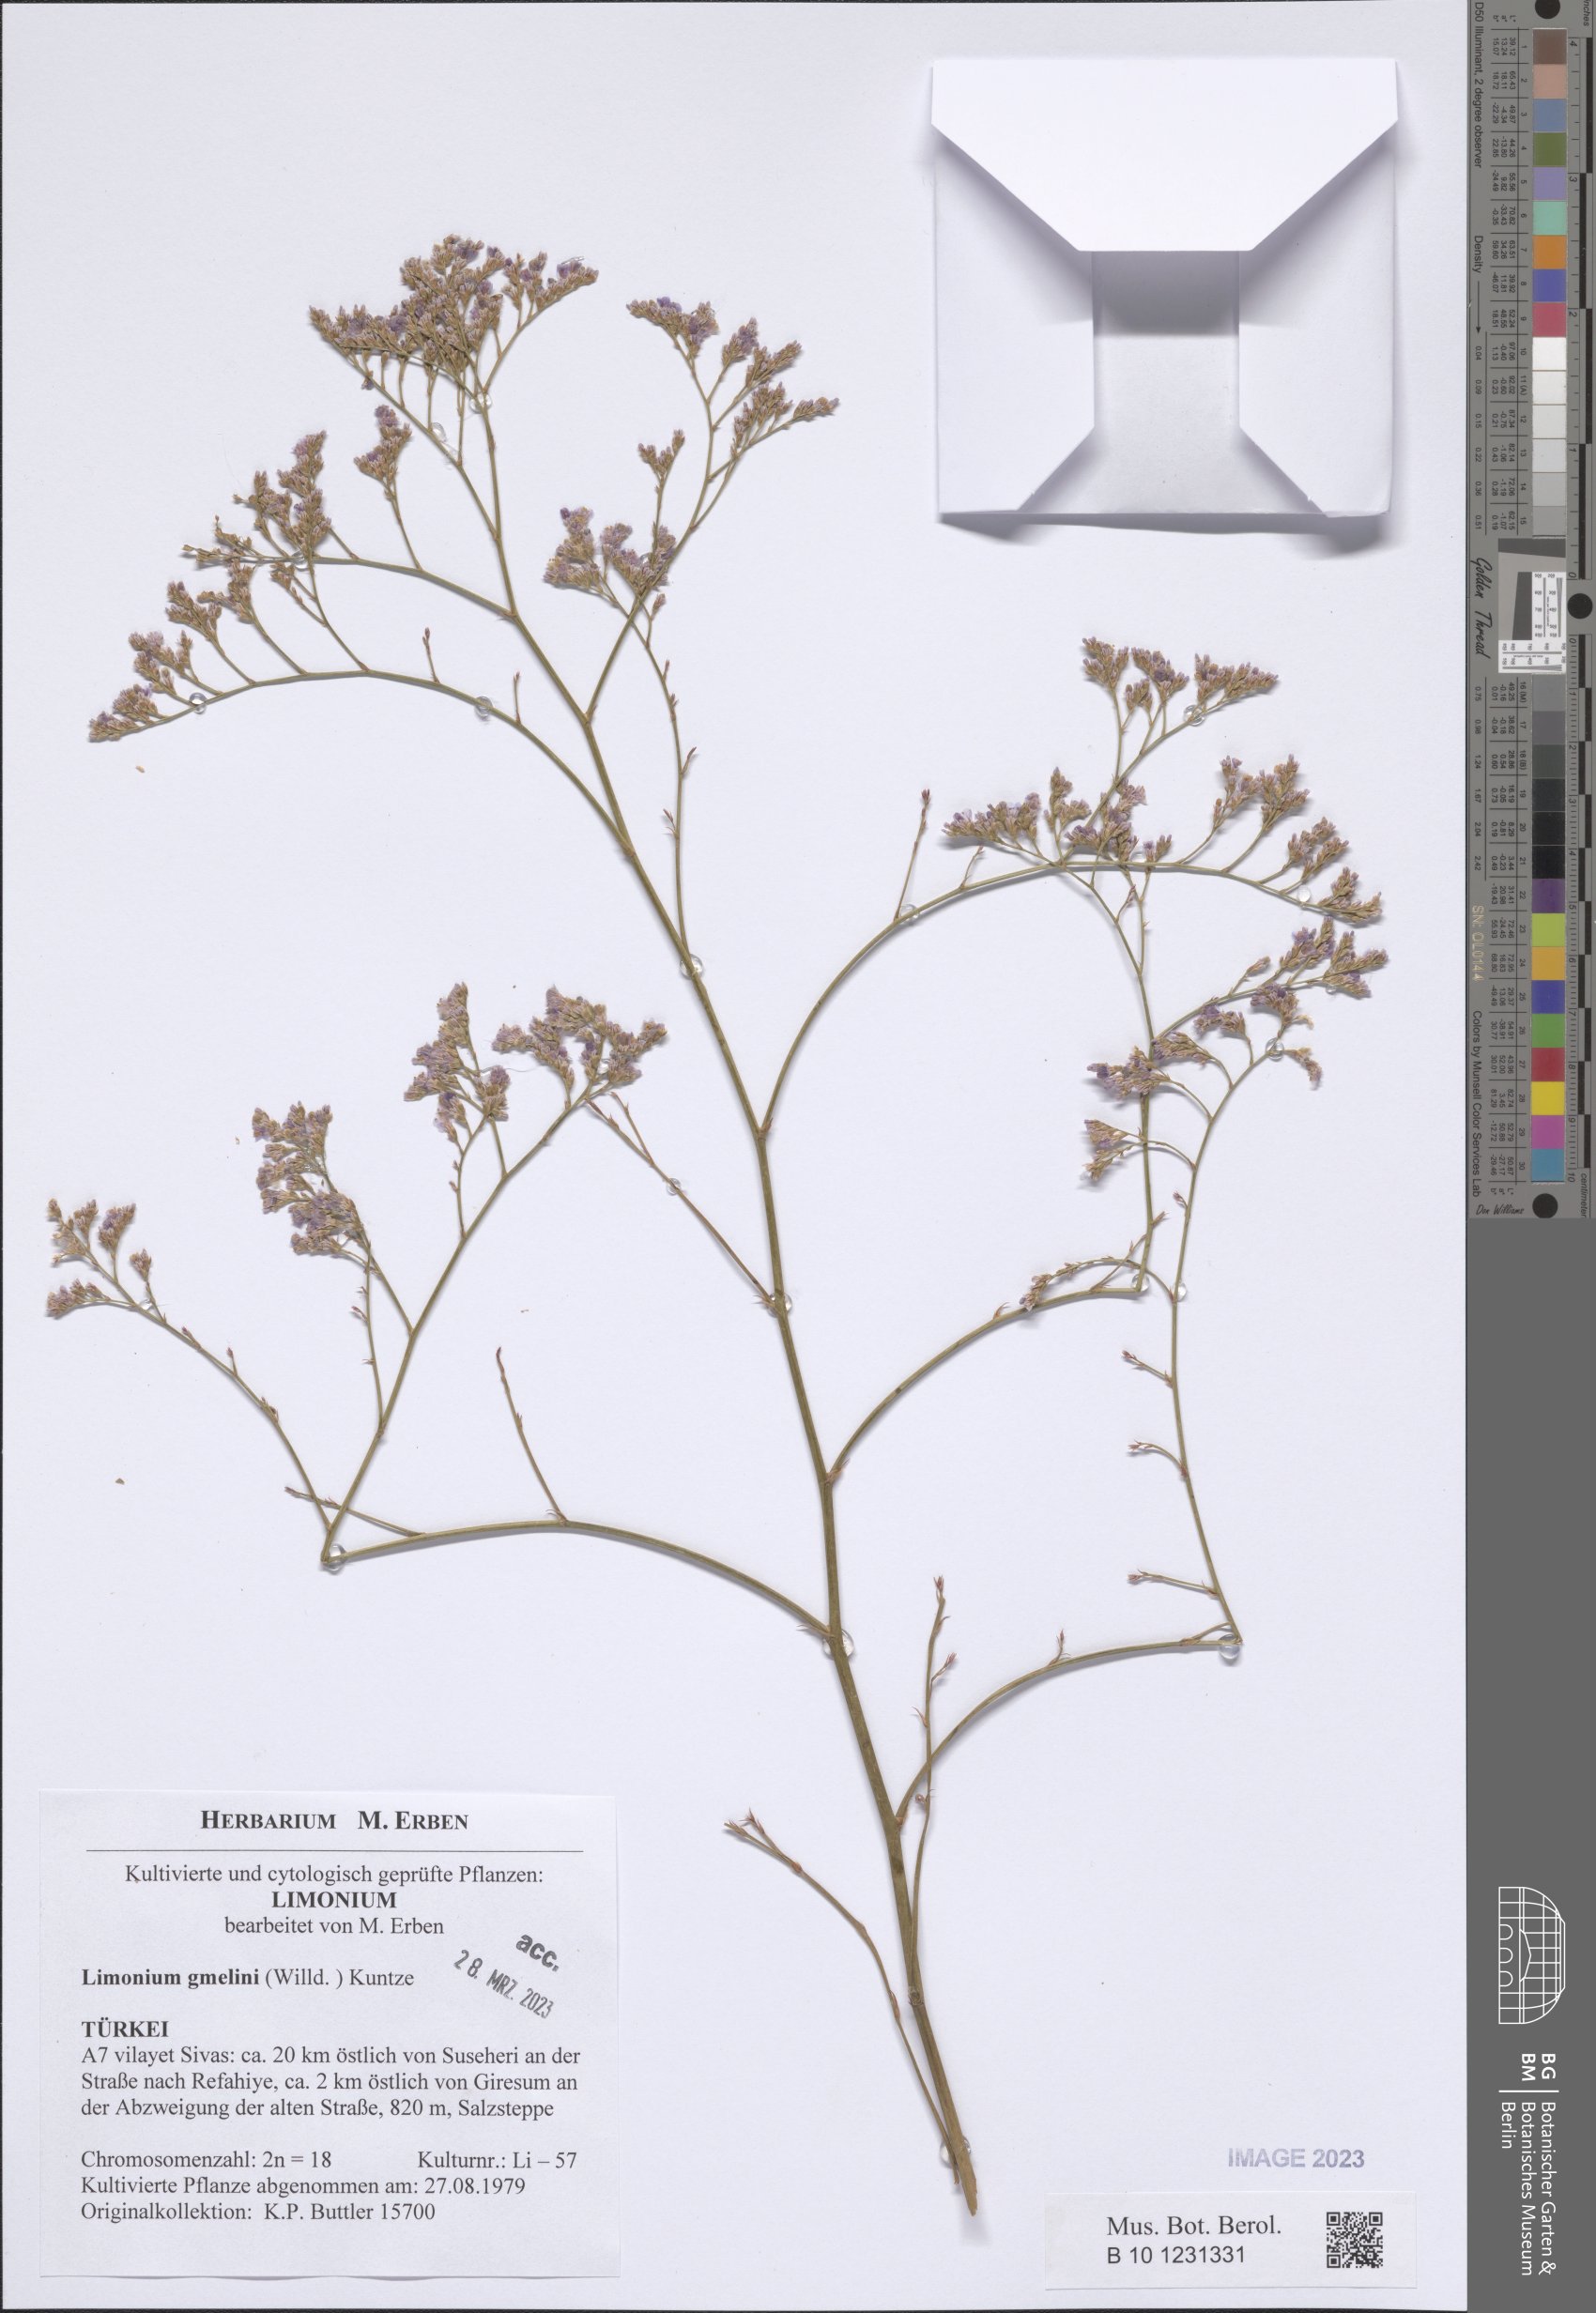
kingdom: Plantae
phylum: Tracheophyta
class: Magnoliopsida
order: Caryophyllales
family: Plumbaginaceae
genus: Limonium
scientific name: Limonium gmelini
